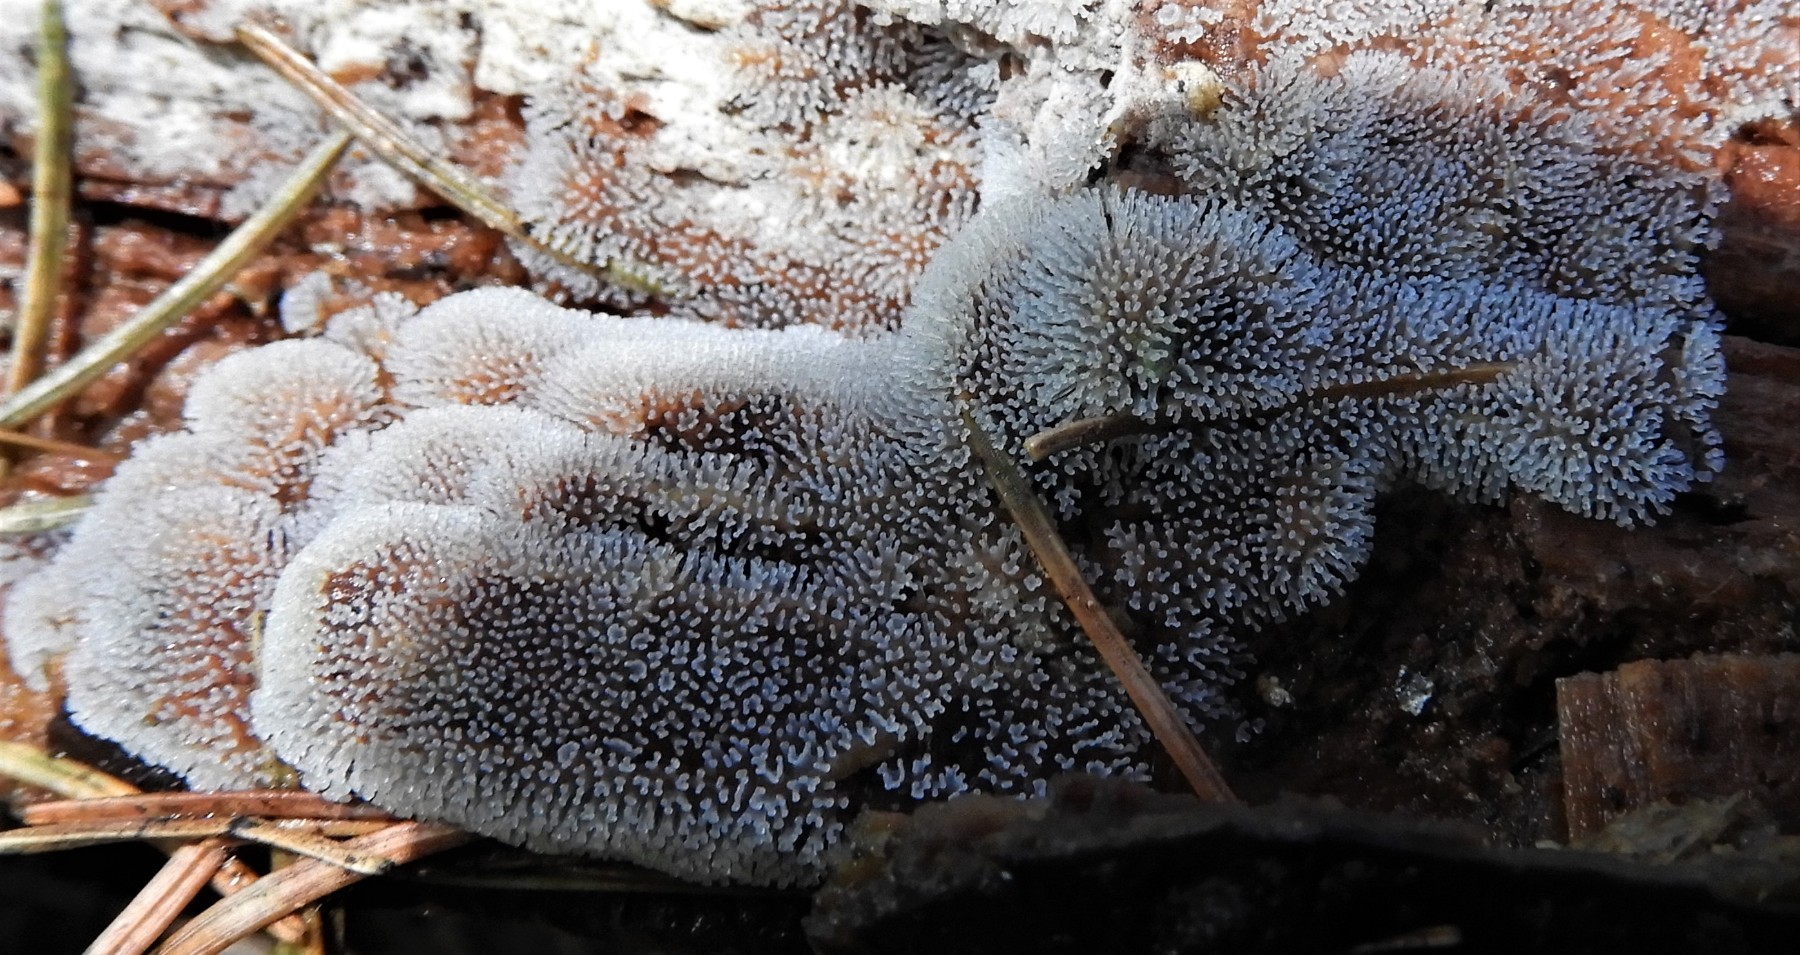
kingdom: Protozoa
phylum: Mycetozoa
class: Protosteliomycetes
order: Ceratiomyxales
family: Ceratiomyxaceae
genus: Ceratiomyxa
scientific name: Ceratiomyxa fruticulosa
